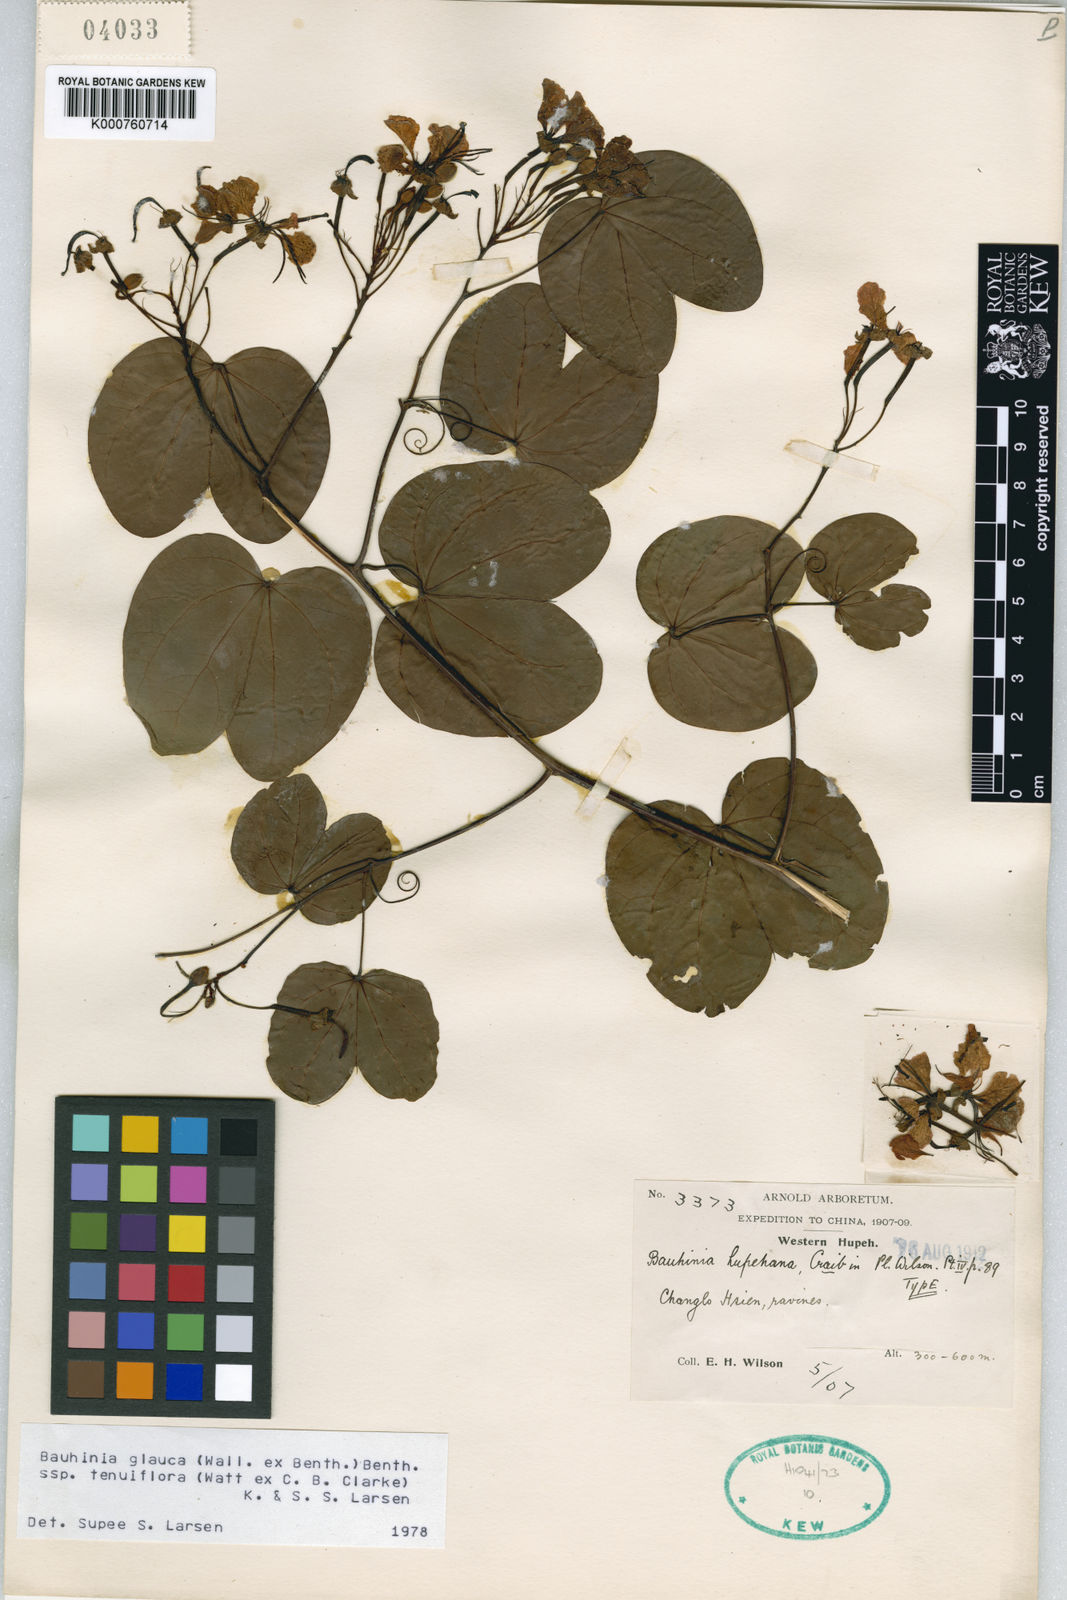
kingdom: Plantae
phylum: Tracheophyta
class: Magnoliopsida
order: Fabales
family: Fabaceae
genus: Cheniella
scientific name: Cheniella tenuiflora
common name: Bauhinia
